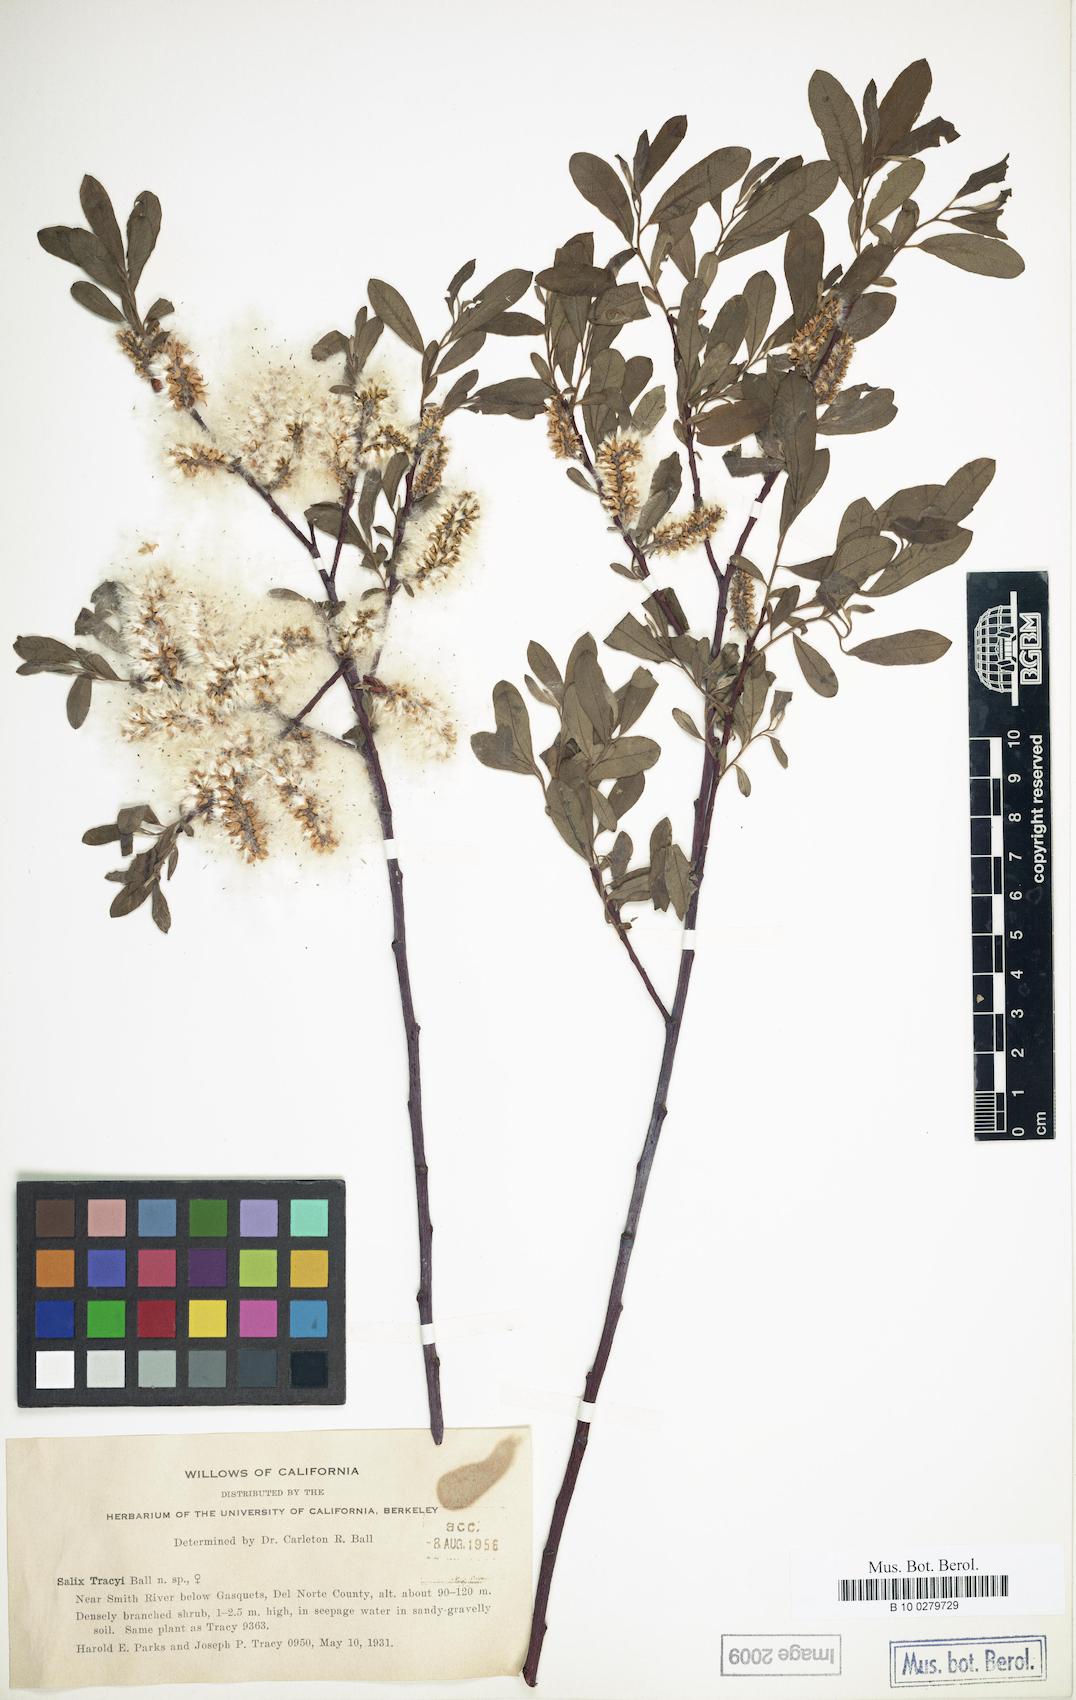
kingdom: Plantae
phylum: Tracheophyta
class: Magnoliopsida
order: Malpighiales
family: Salicaceae
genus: Salix
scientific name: Salix tracyi
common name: Tracy’s willow
